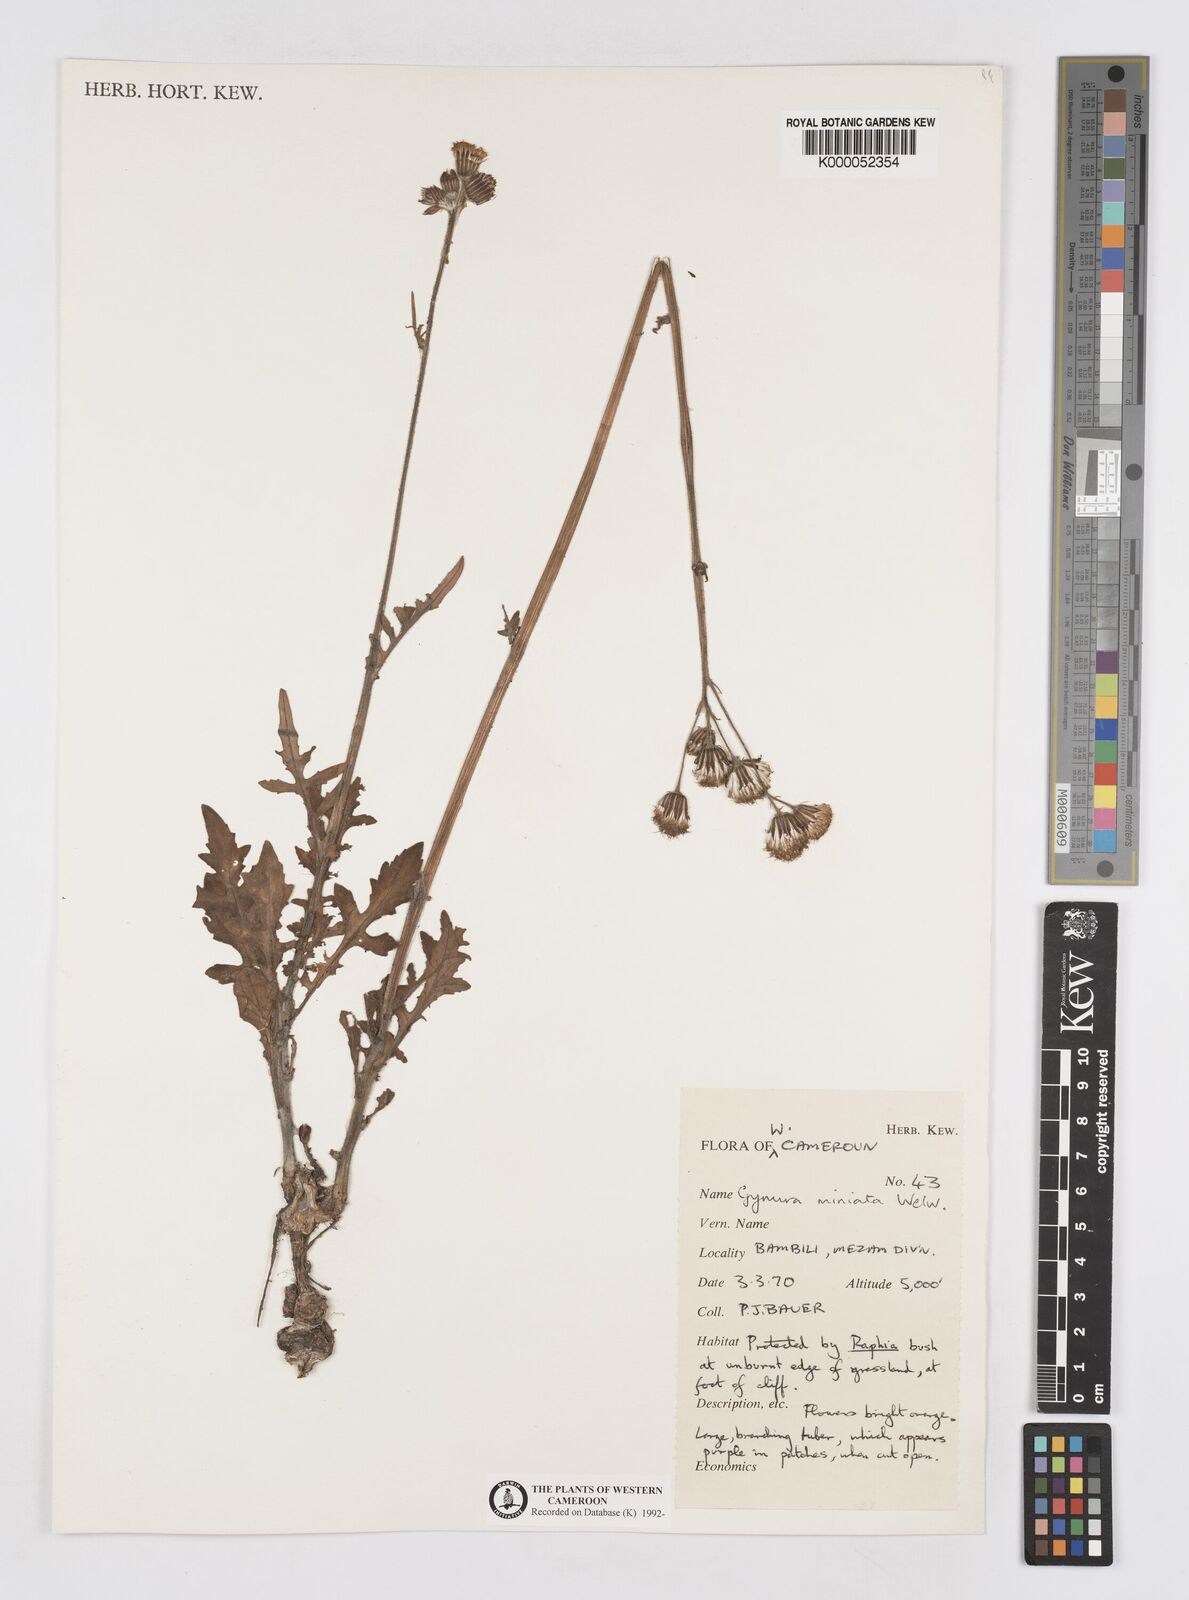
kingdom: Plantae
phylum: Tracheophyta
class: Magnoliopsida
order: Asterales
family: Asteraceae
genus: Gynura
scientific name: Gynura pseudochina
